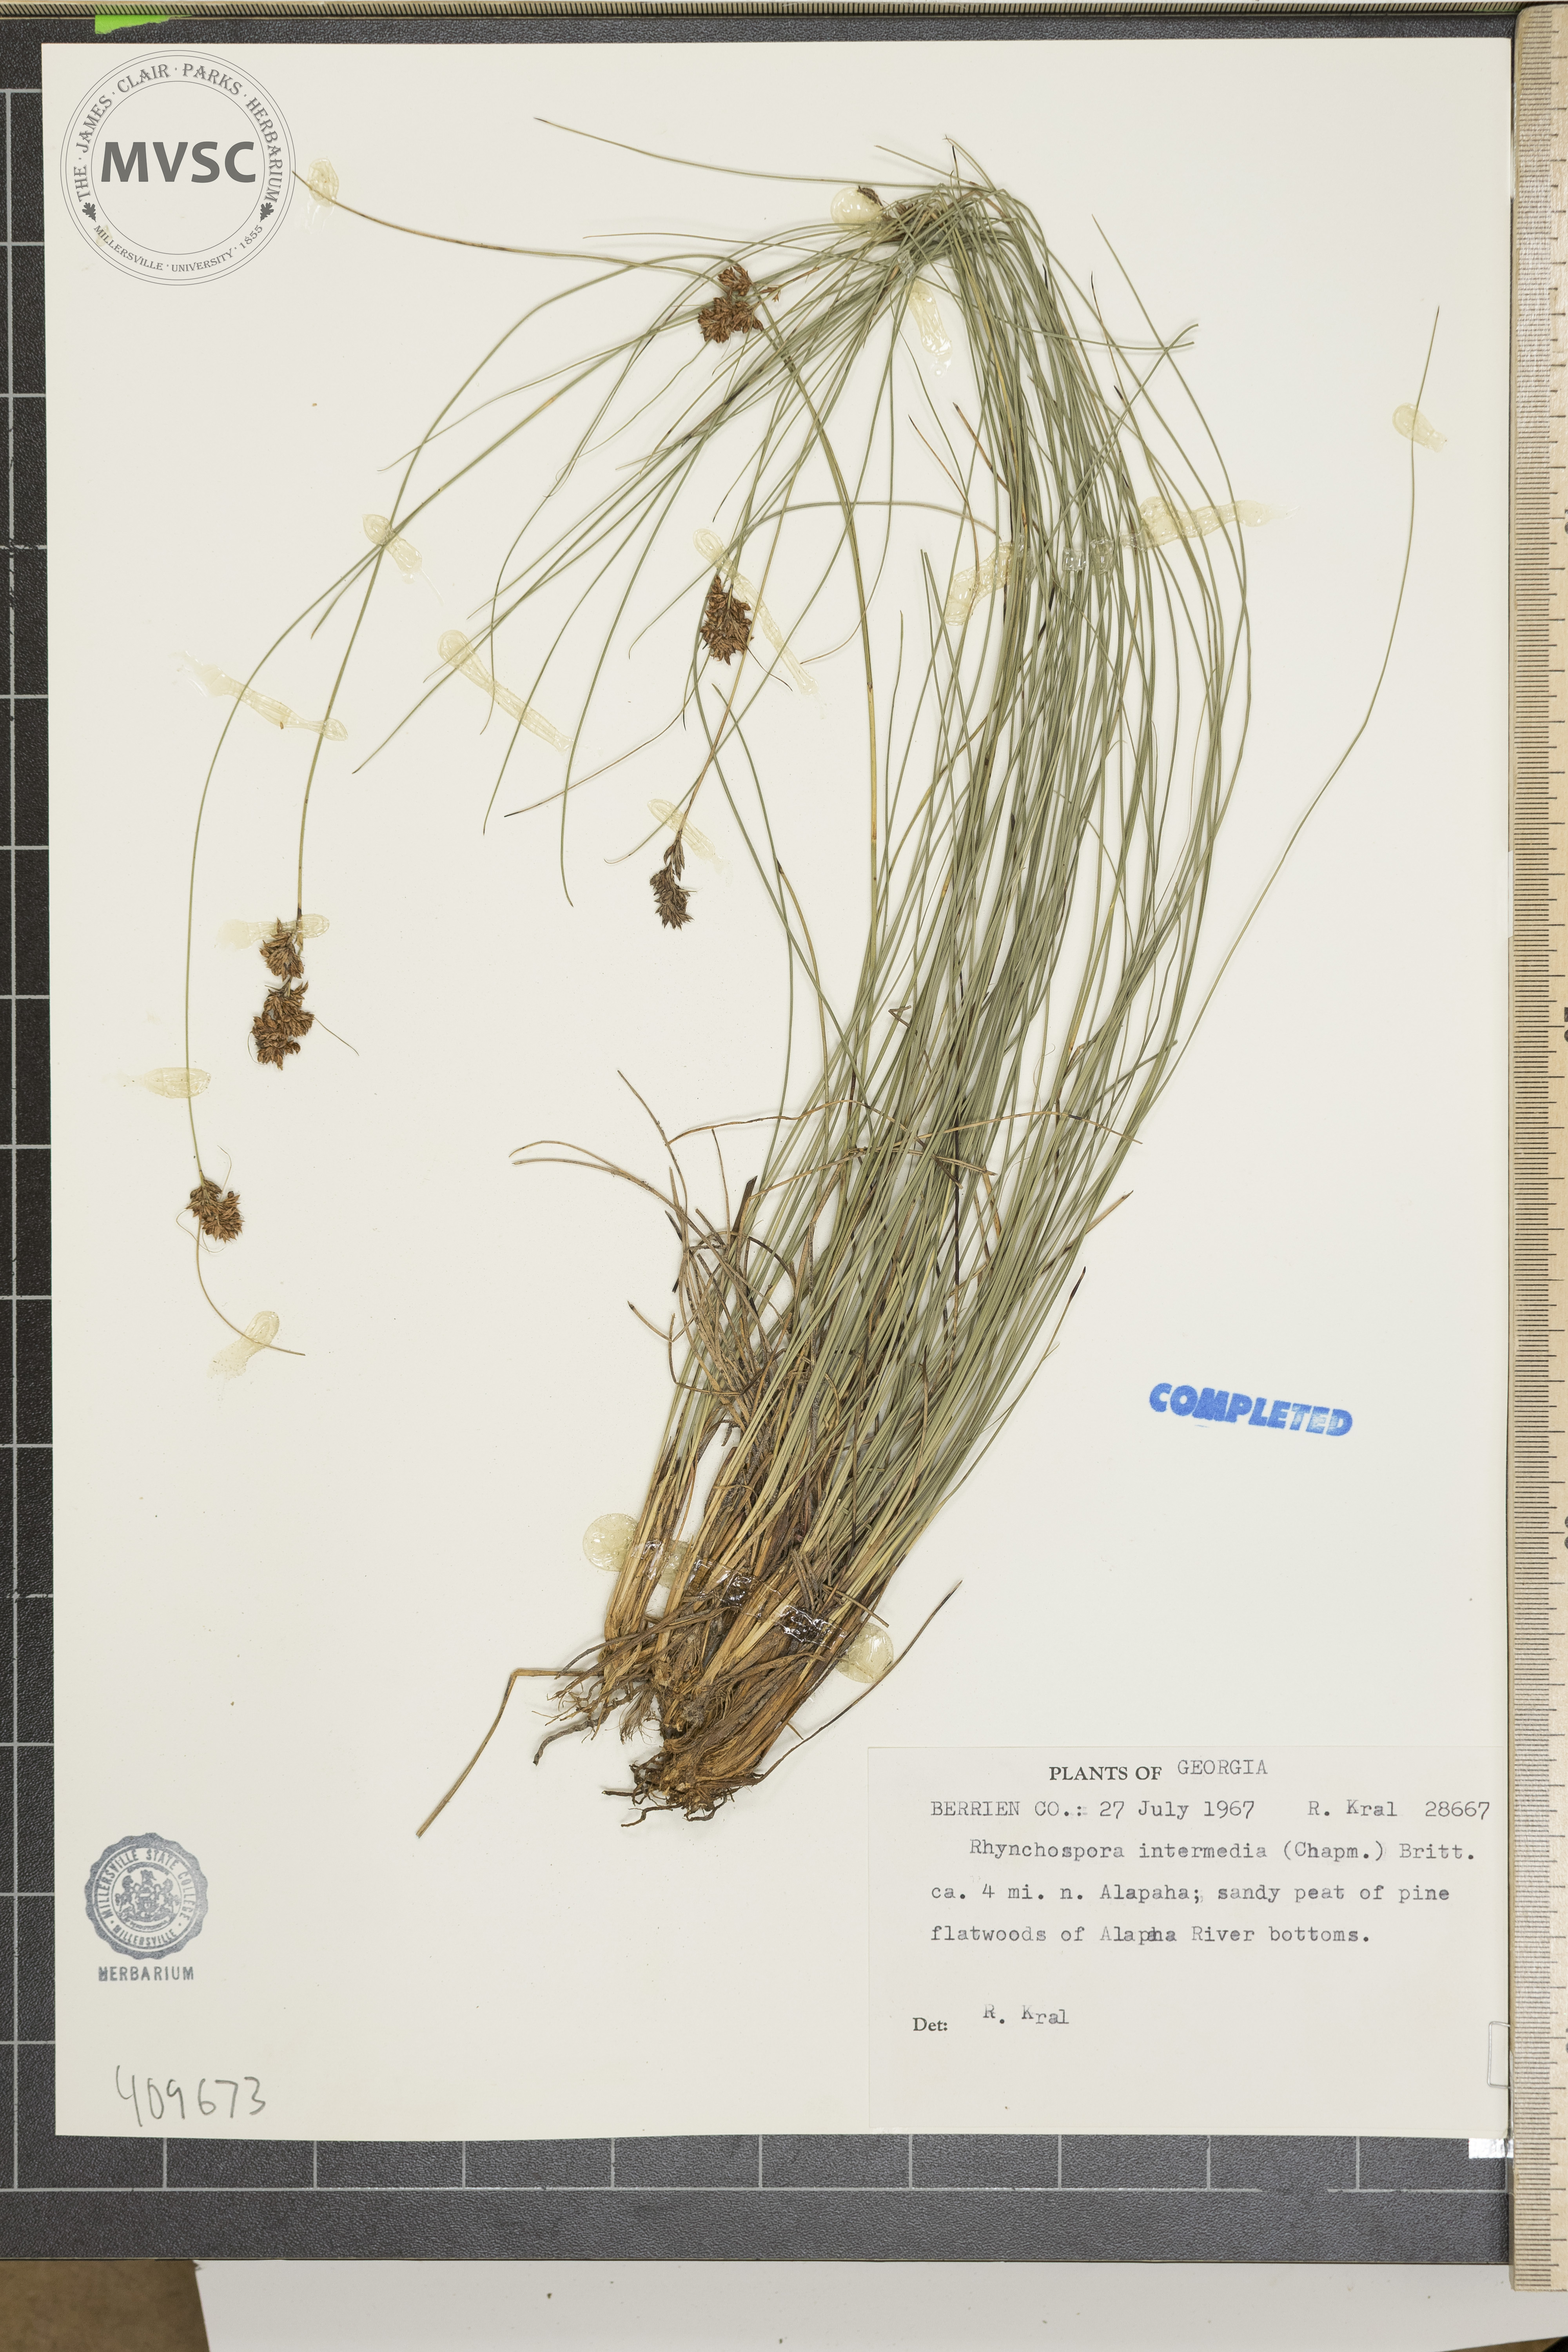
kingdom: Plantae
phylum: Tracheophyta
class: Liliopsida
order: Poales
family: Cyperaceae
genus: Rhynchospora
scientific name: Rhynchospora intermedia
